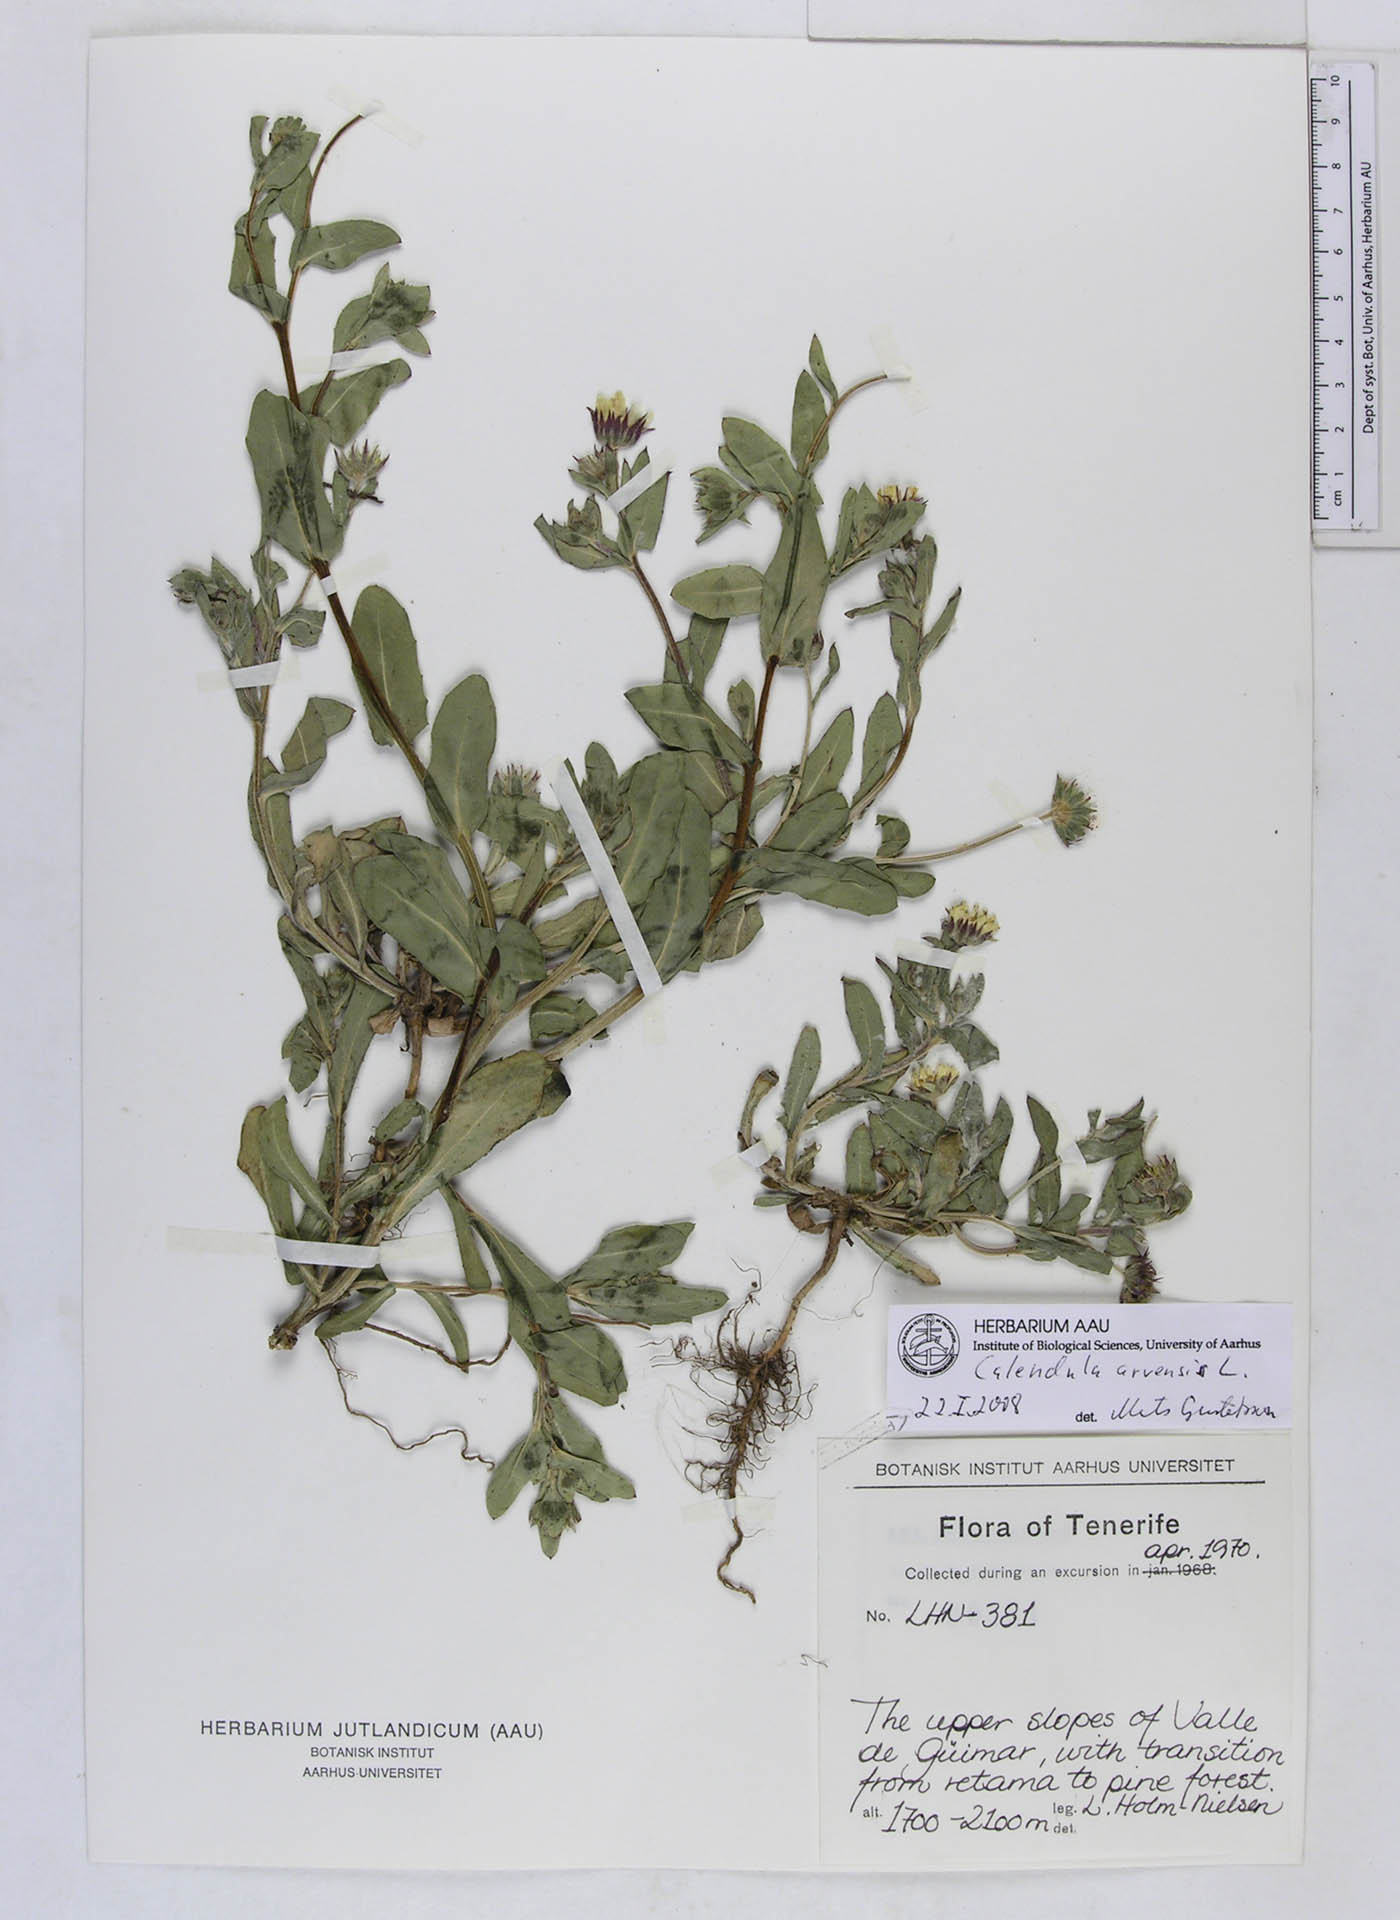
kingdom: Plantae
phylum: Tracheophyta
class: Magnoliopsida
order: Asterales
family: Asteraceae
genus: Calendula
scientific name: Calendula arvensis
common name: Field marigold
